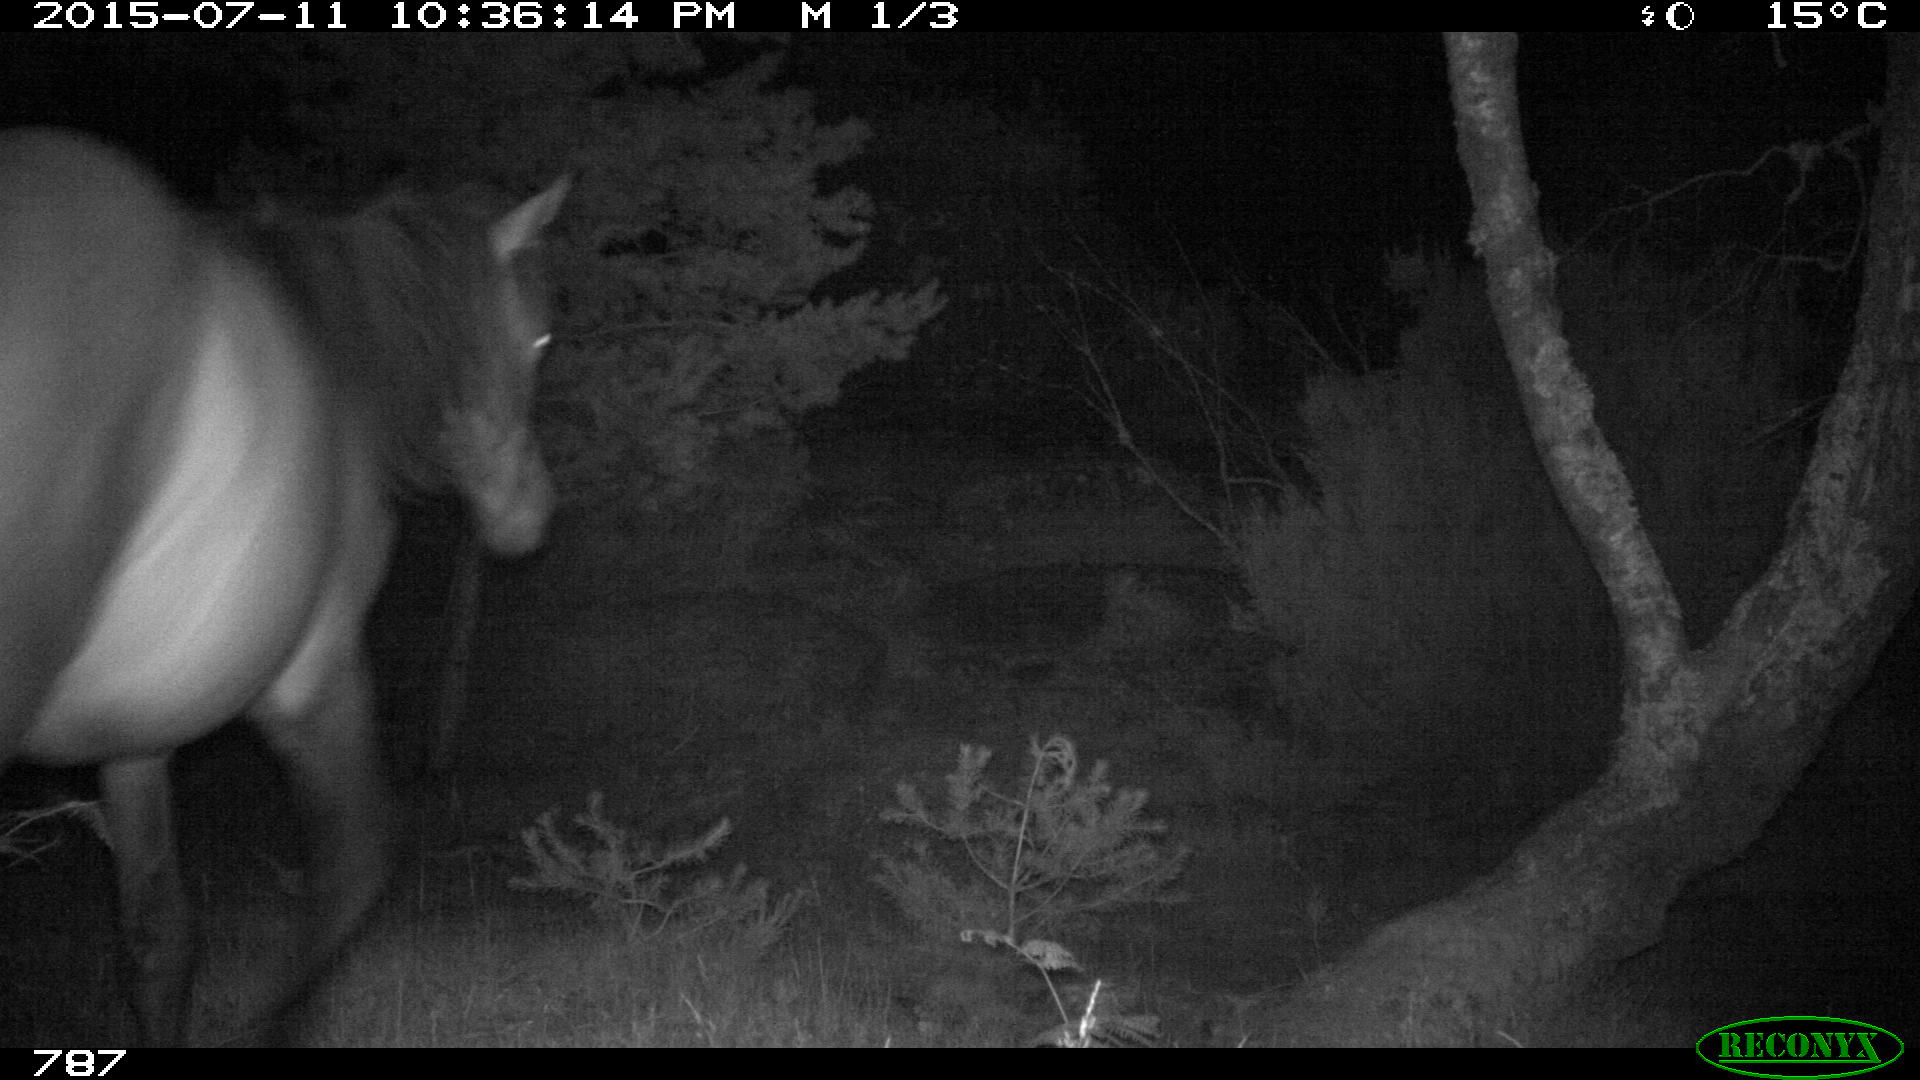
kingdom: Animalia
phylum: Chordata
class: Mammalia
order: Perissodactyla
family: Equidae
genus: Equus
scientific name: Equus caballus
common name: Horse
